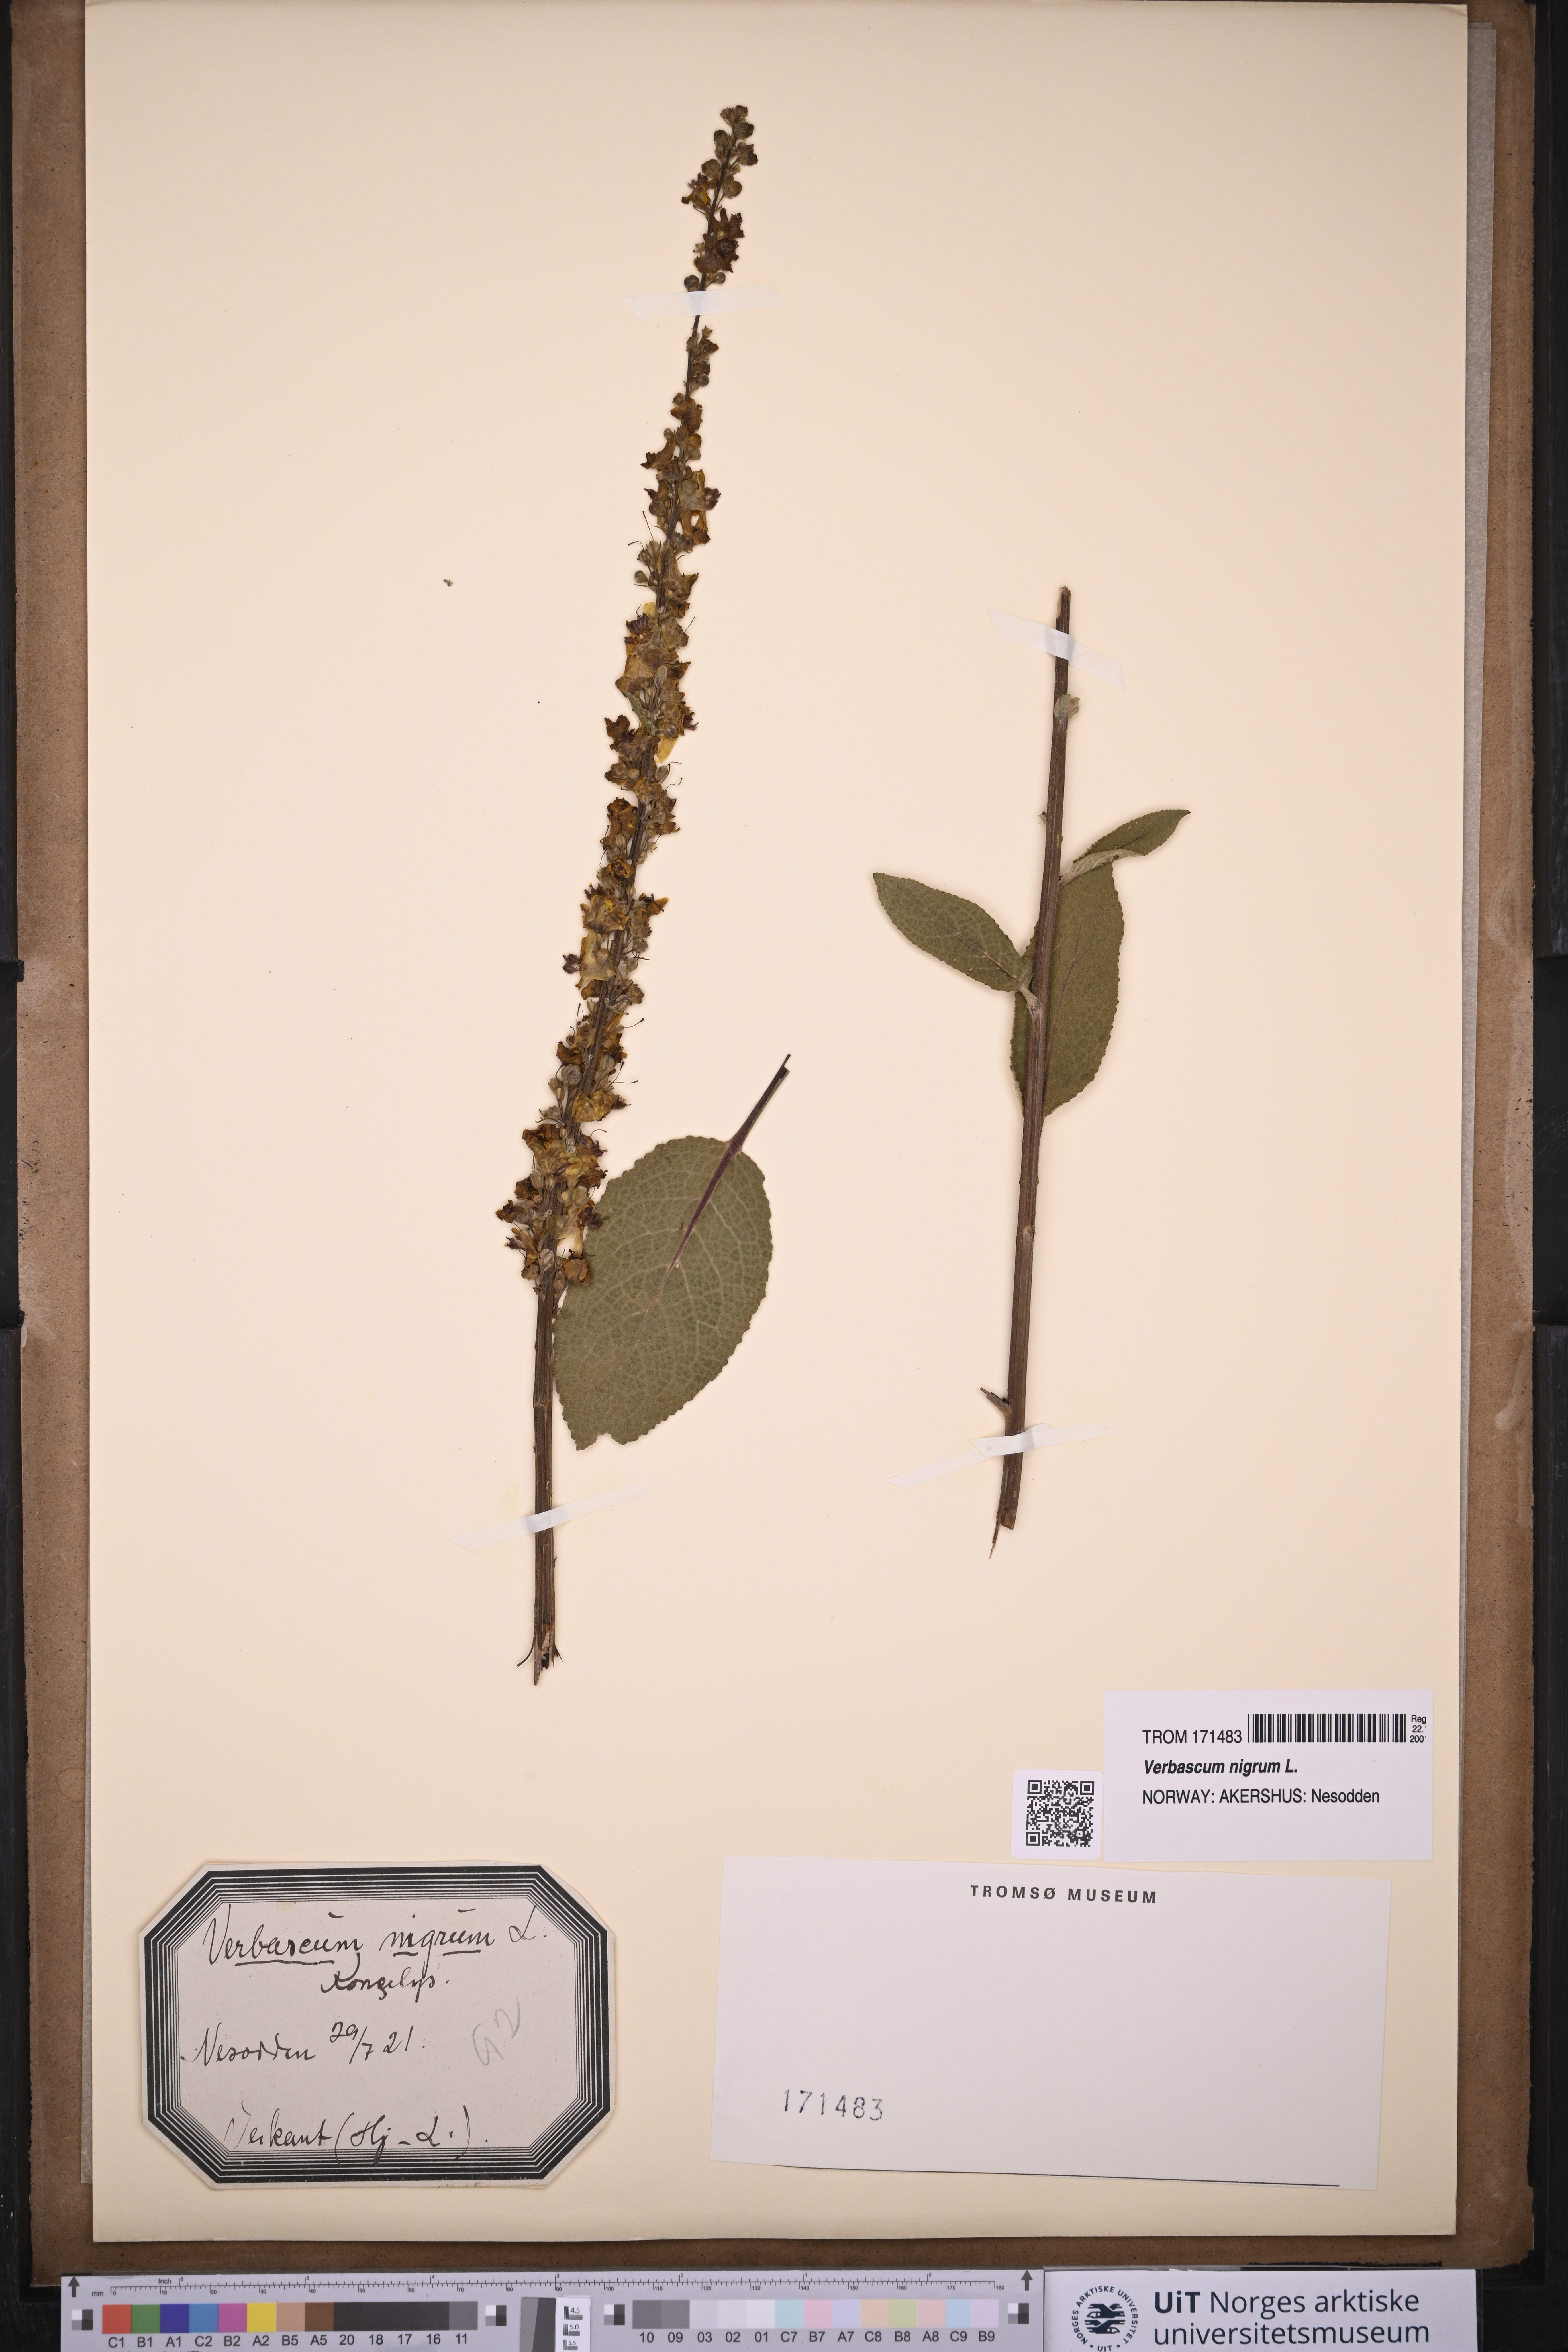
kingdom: Plantae
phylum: Tracheophyta
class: Magnoliopsida
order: Lamiales
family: Scrophulariaceae
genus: Verbascum
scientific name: Verbascum nigrum
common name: Dark mullein
